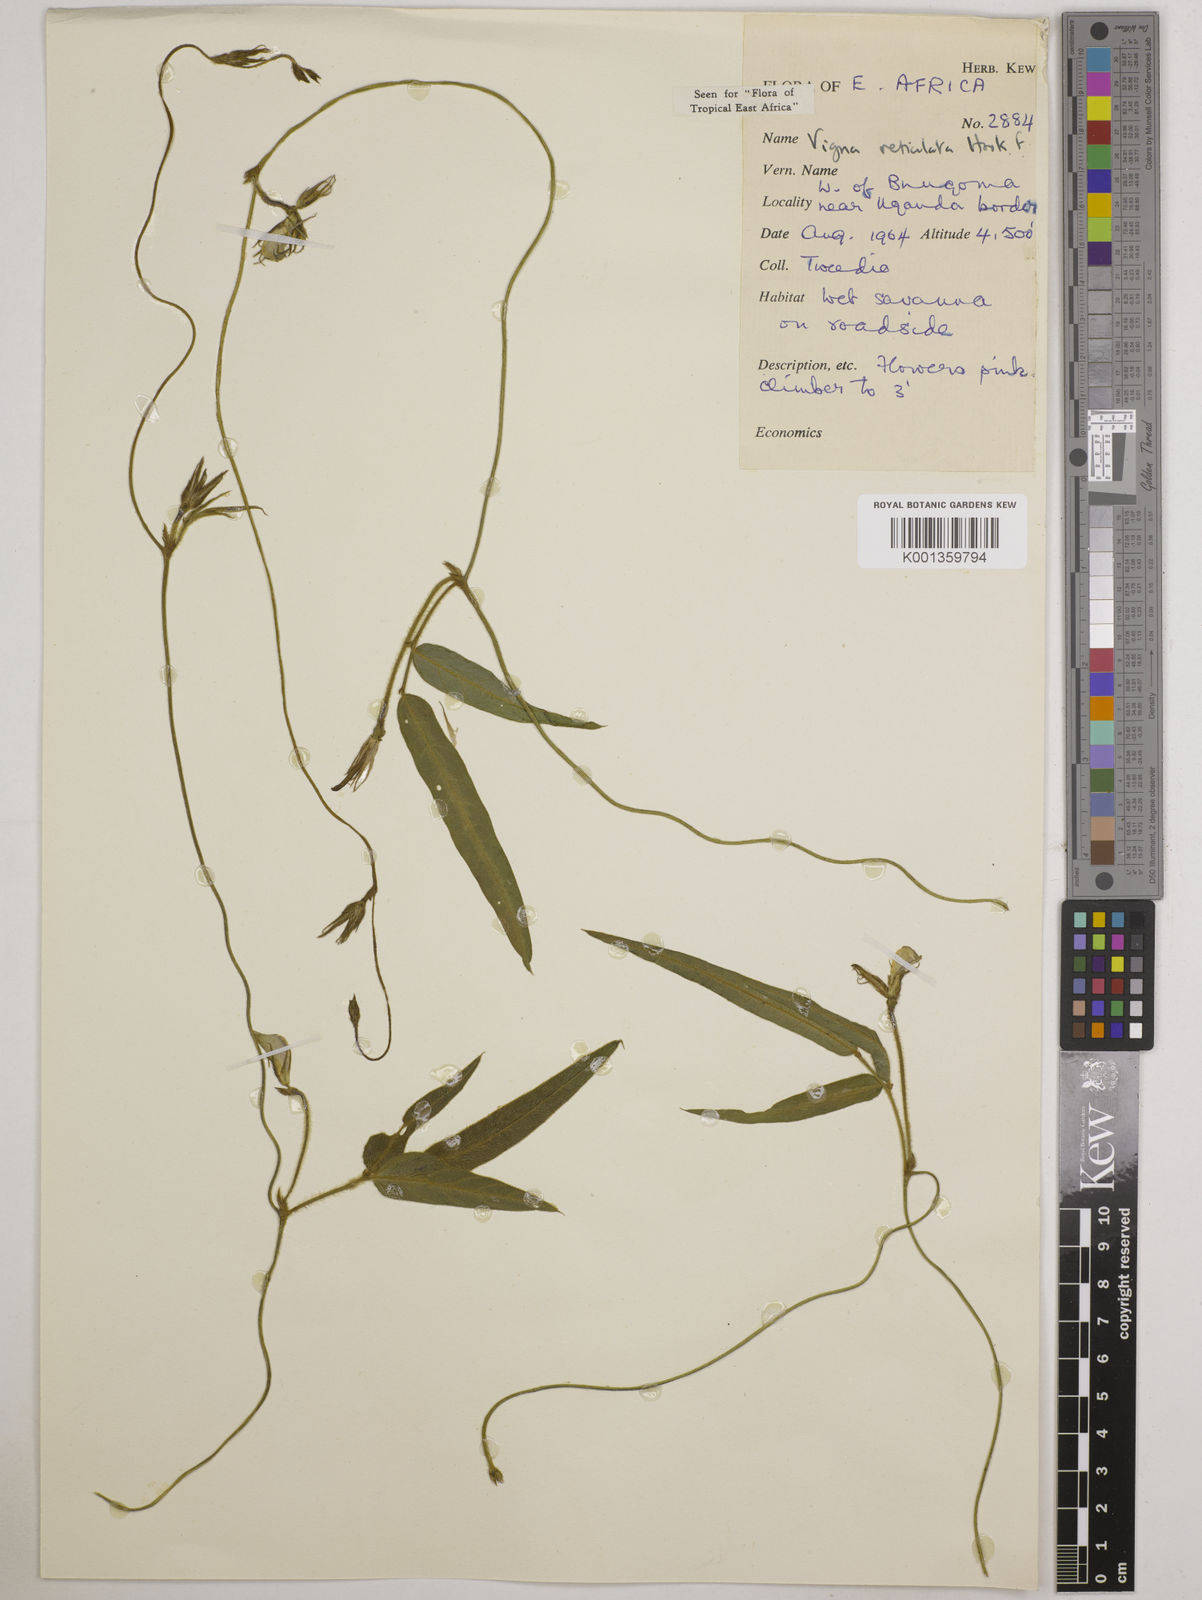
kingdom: Plantae
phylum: Tracheophyta
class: Magnoliopsida
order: Fabales
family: Fabaceae
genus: Vigna
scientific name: Vigna reticulata
